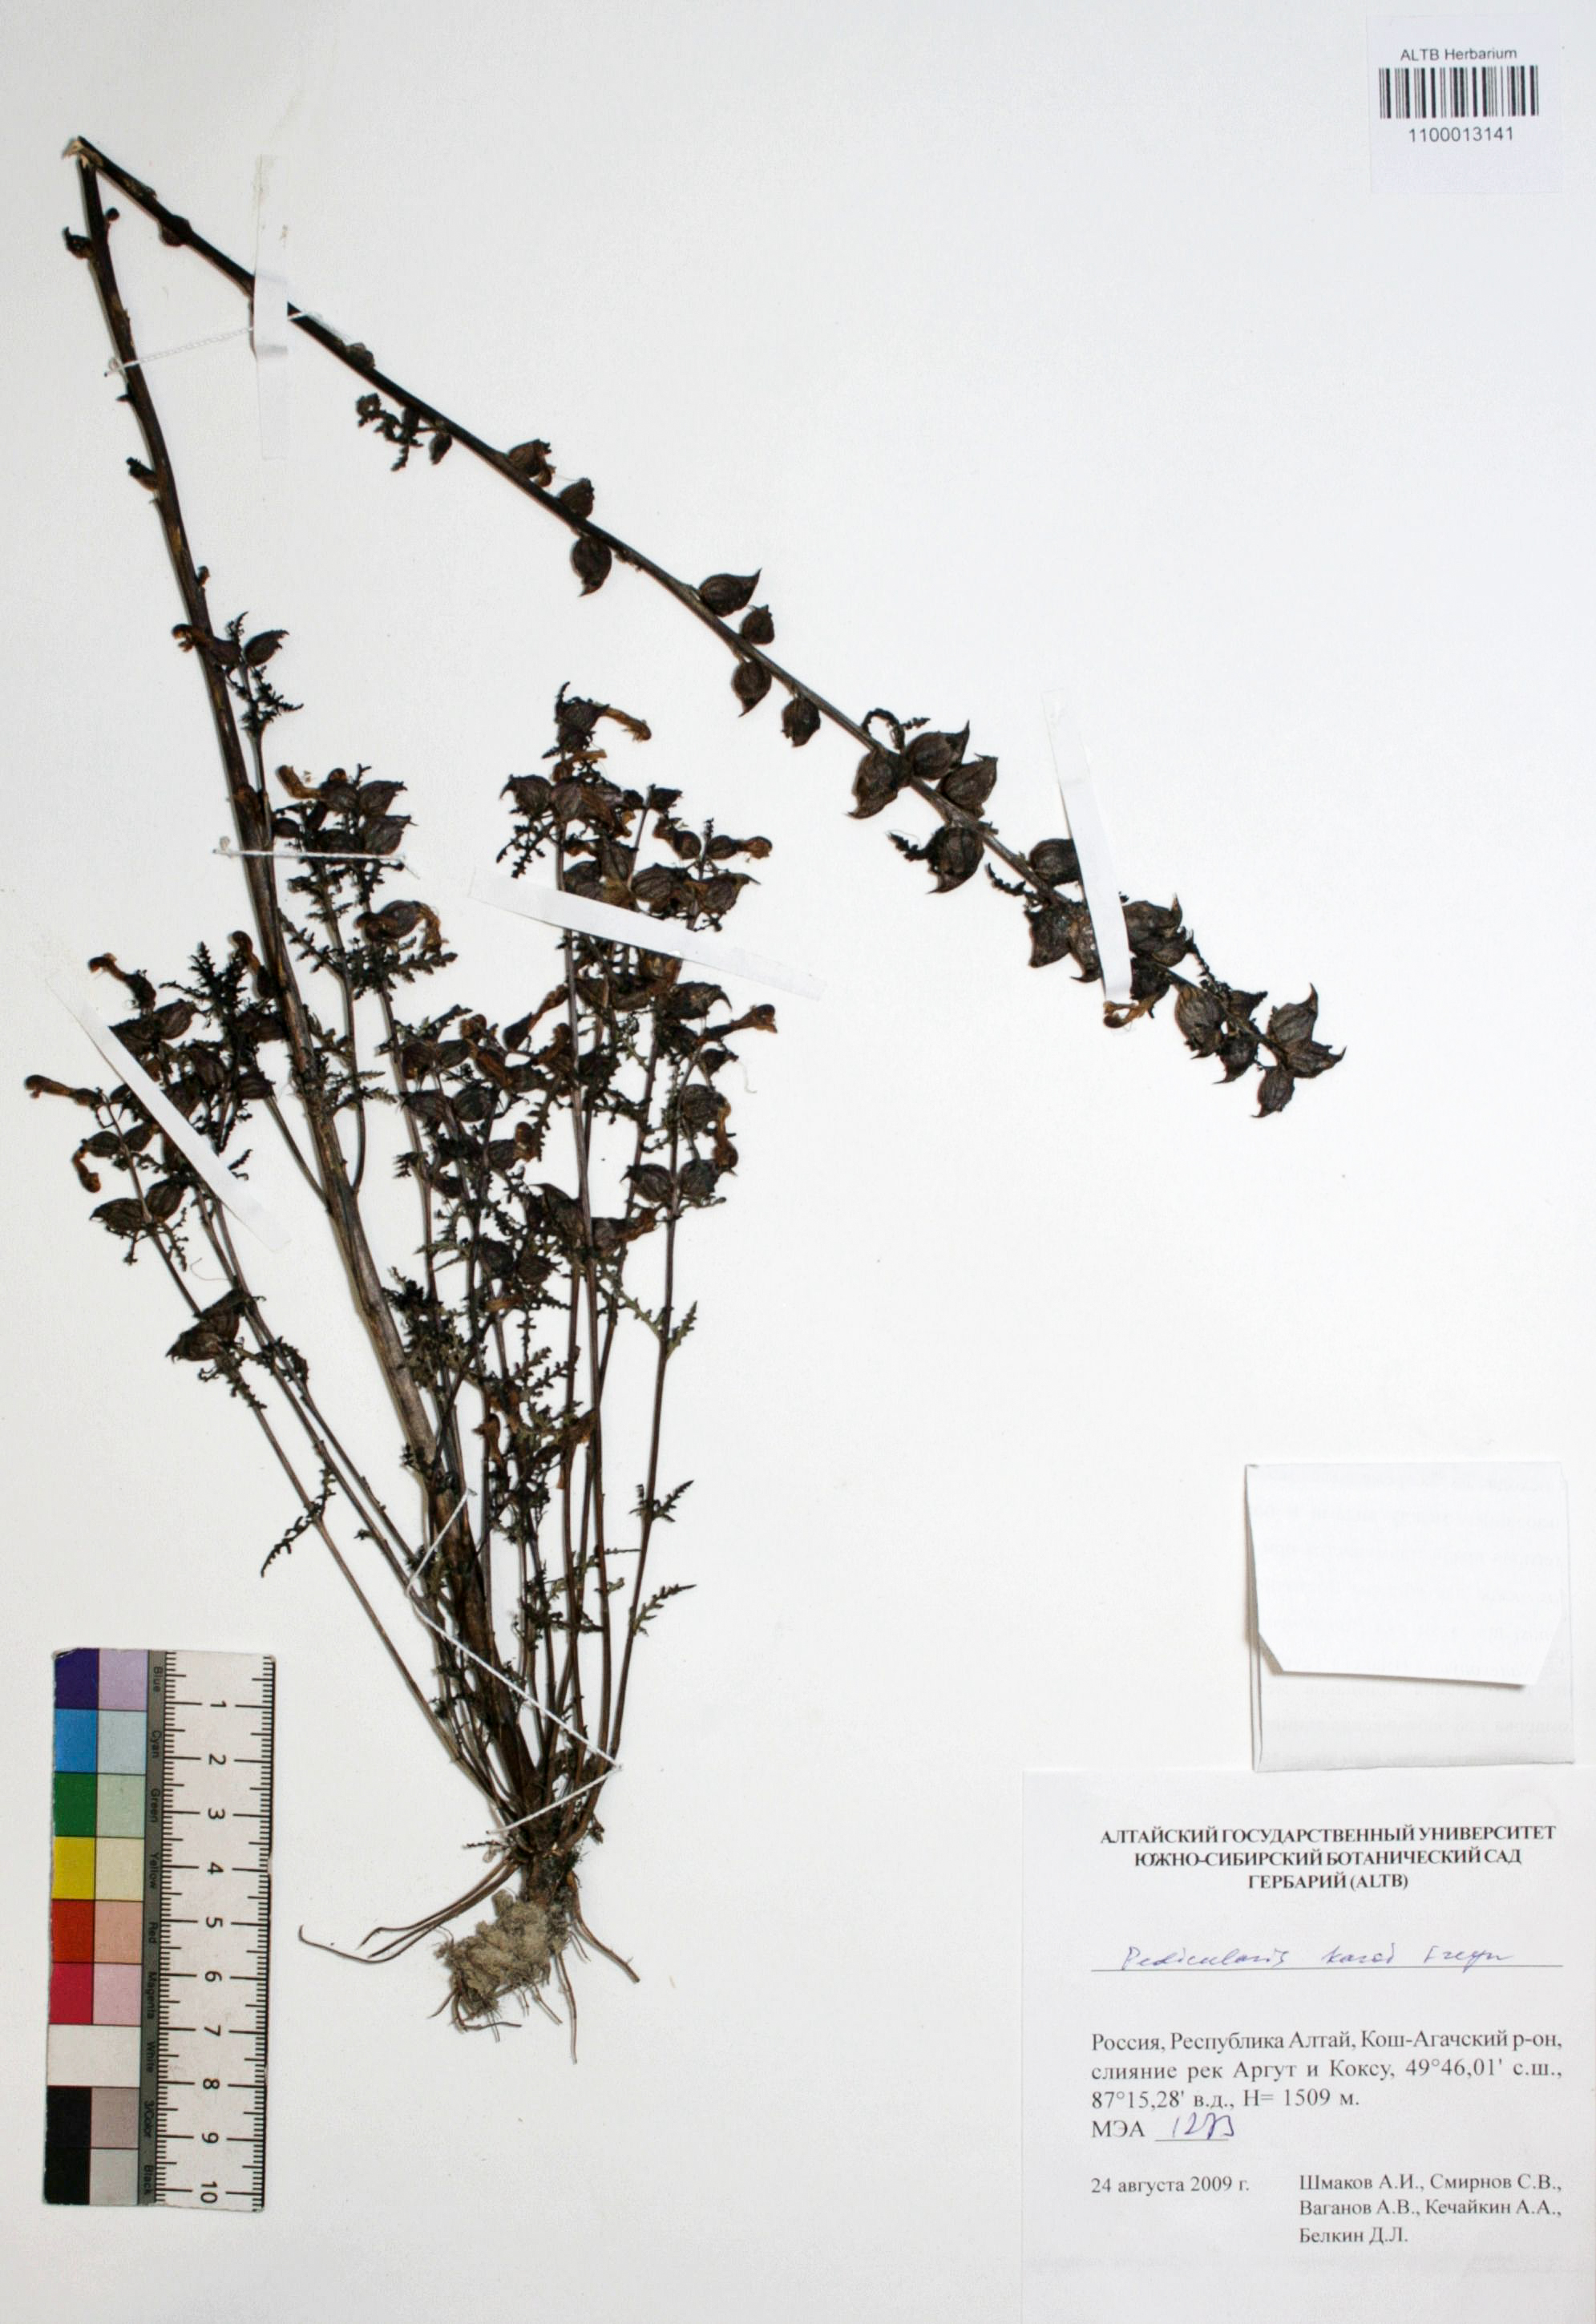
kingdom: Plantae
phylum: Tracheophyta
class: Magnoliopsida
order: Lamiales
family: Orobanchaceae
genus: Pedicularis
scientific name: Pedicularis karoi
